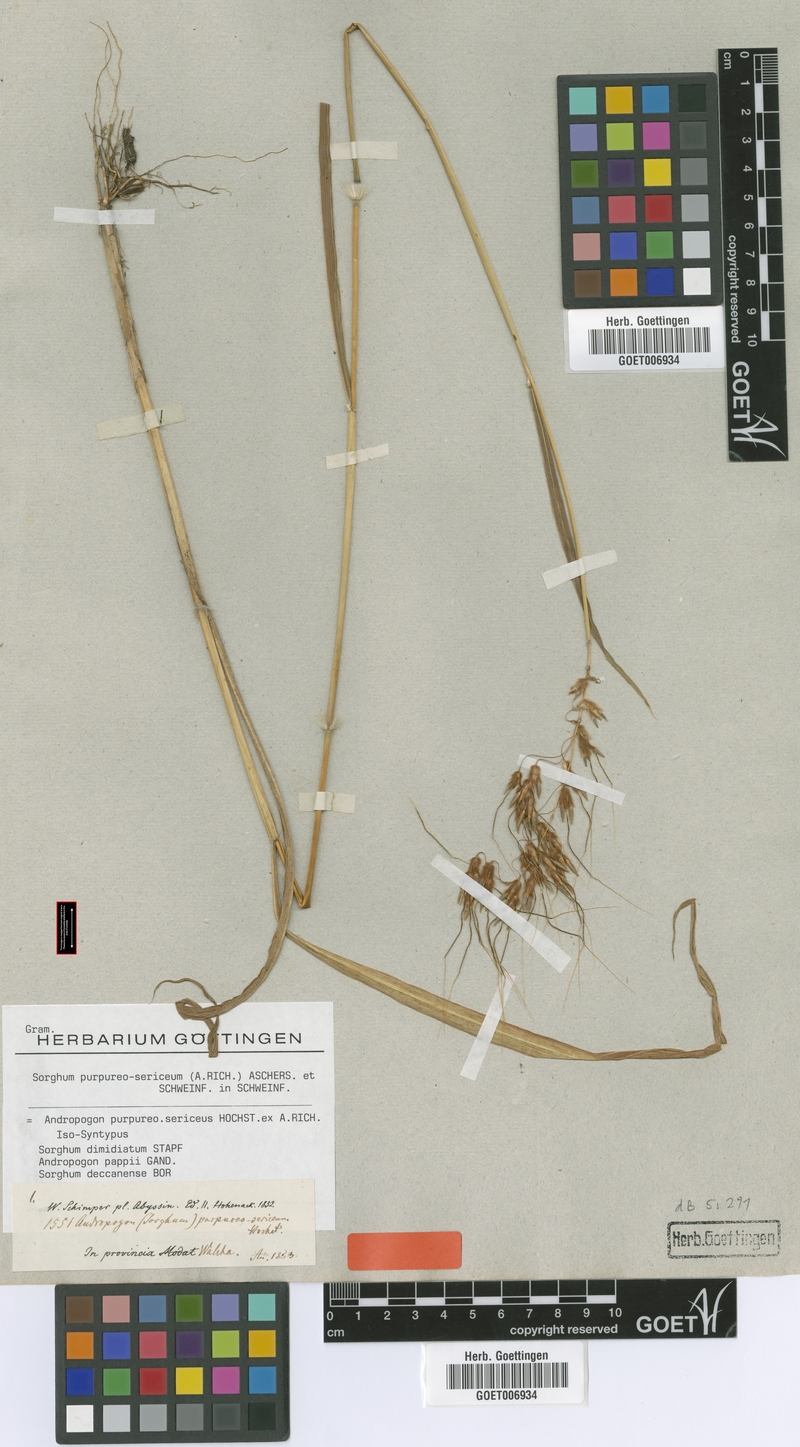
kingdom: Plantae
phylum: Tracheophyta
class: Liliopsida
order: Poales
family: Poaceae
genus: Sarga
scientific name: Sarga purpureosericea
